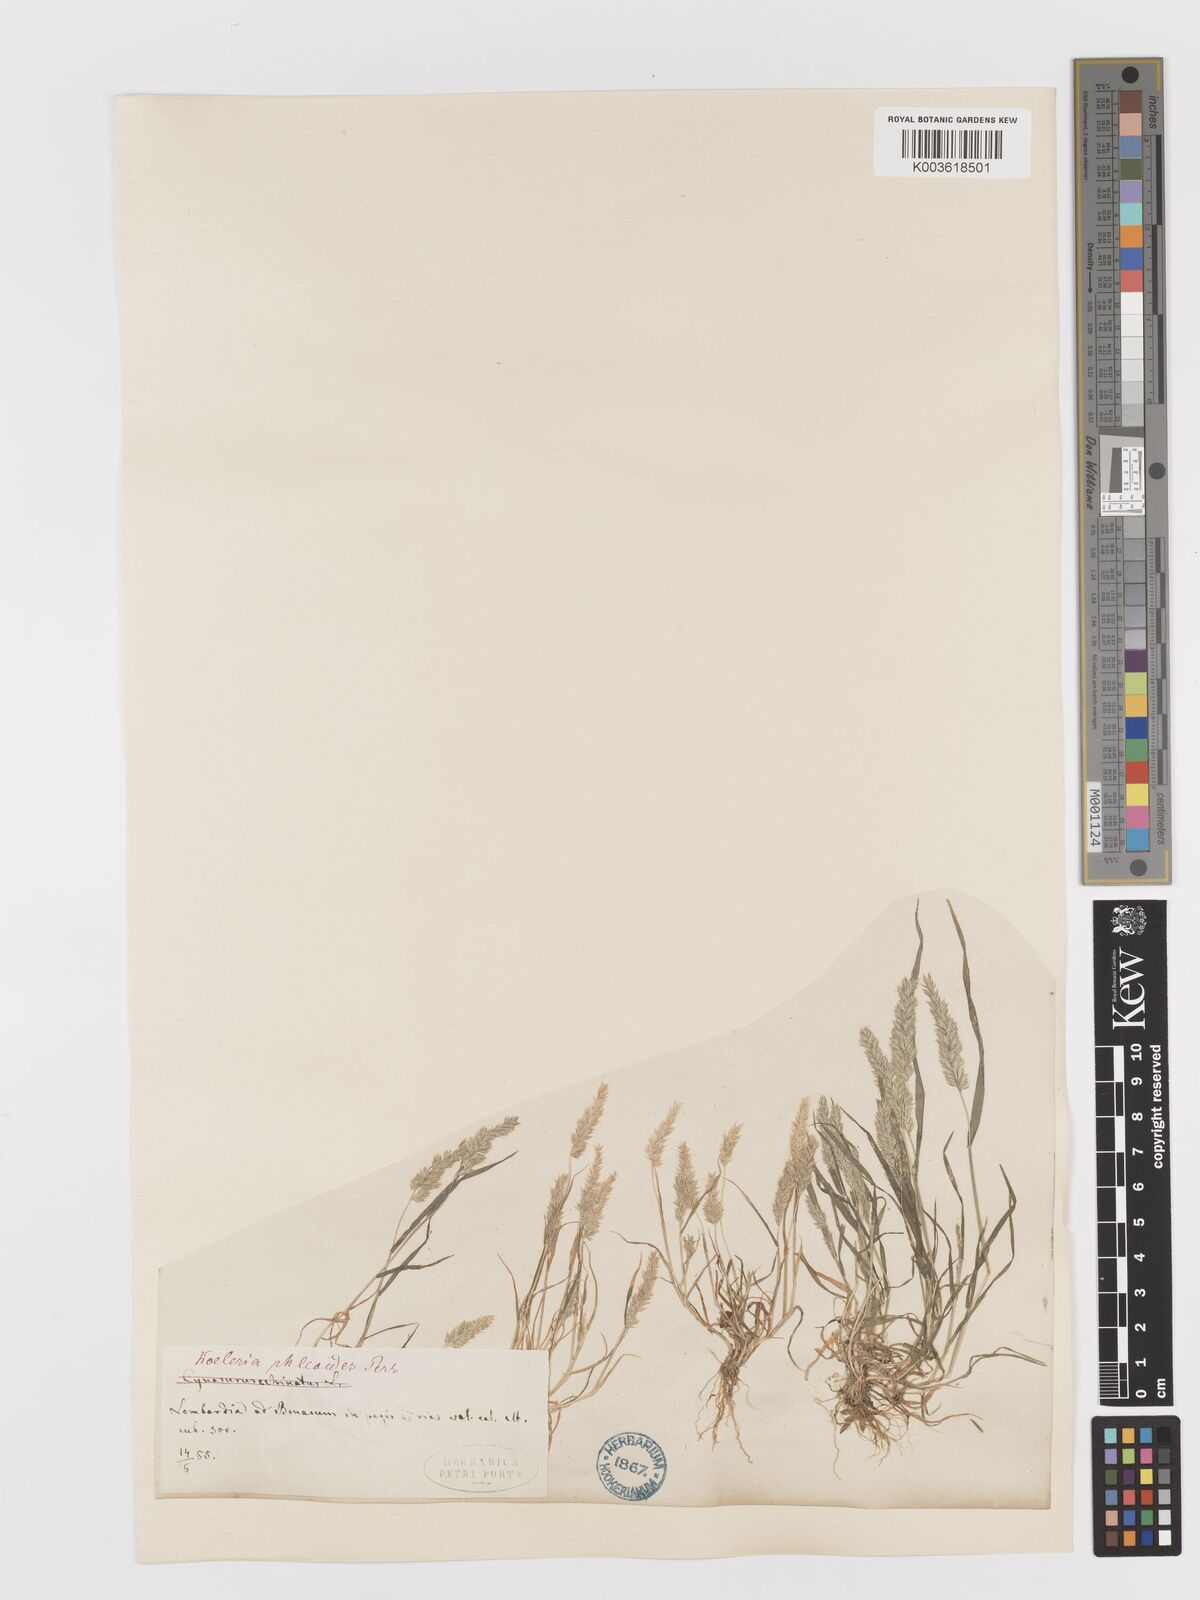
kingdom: Plantae
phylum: Tracheophyta
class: Liliopsida
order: Poales
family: Poaceae
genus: Rostraria
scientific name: Rostraria cristata
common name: Mediterranean hair-grass
